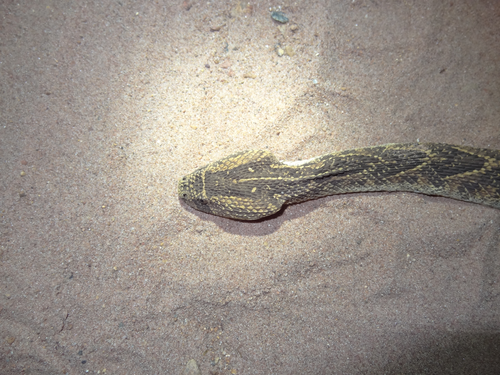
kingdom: Animalia
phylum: Chordata
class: Squamata
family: Viperidae
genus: Bitis
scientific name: Bitis arietans
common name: Puff adder
